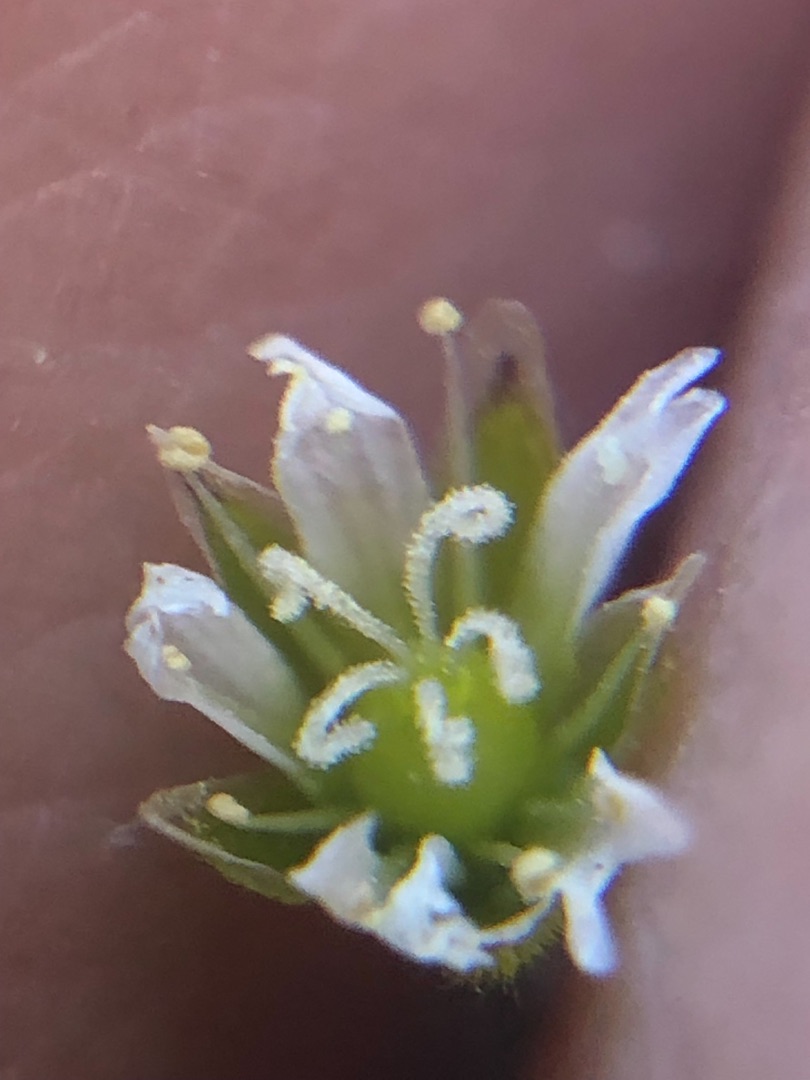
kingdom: Plantae
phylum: Tracheophyta
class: Magnoliopsida
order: Caryophyllales
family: Caryophyllaceae
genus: Cerastium
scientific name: Cerastium fontanum
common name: Almindelig hønsetarm
